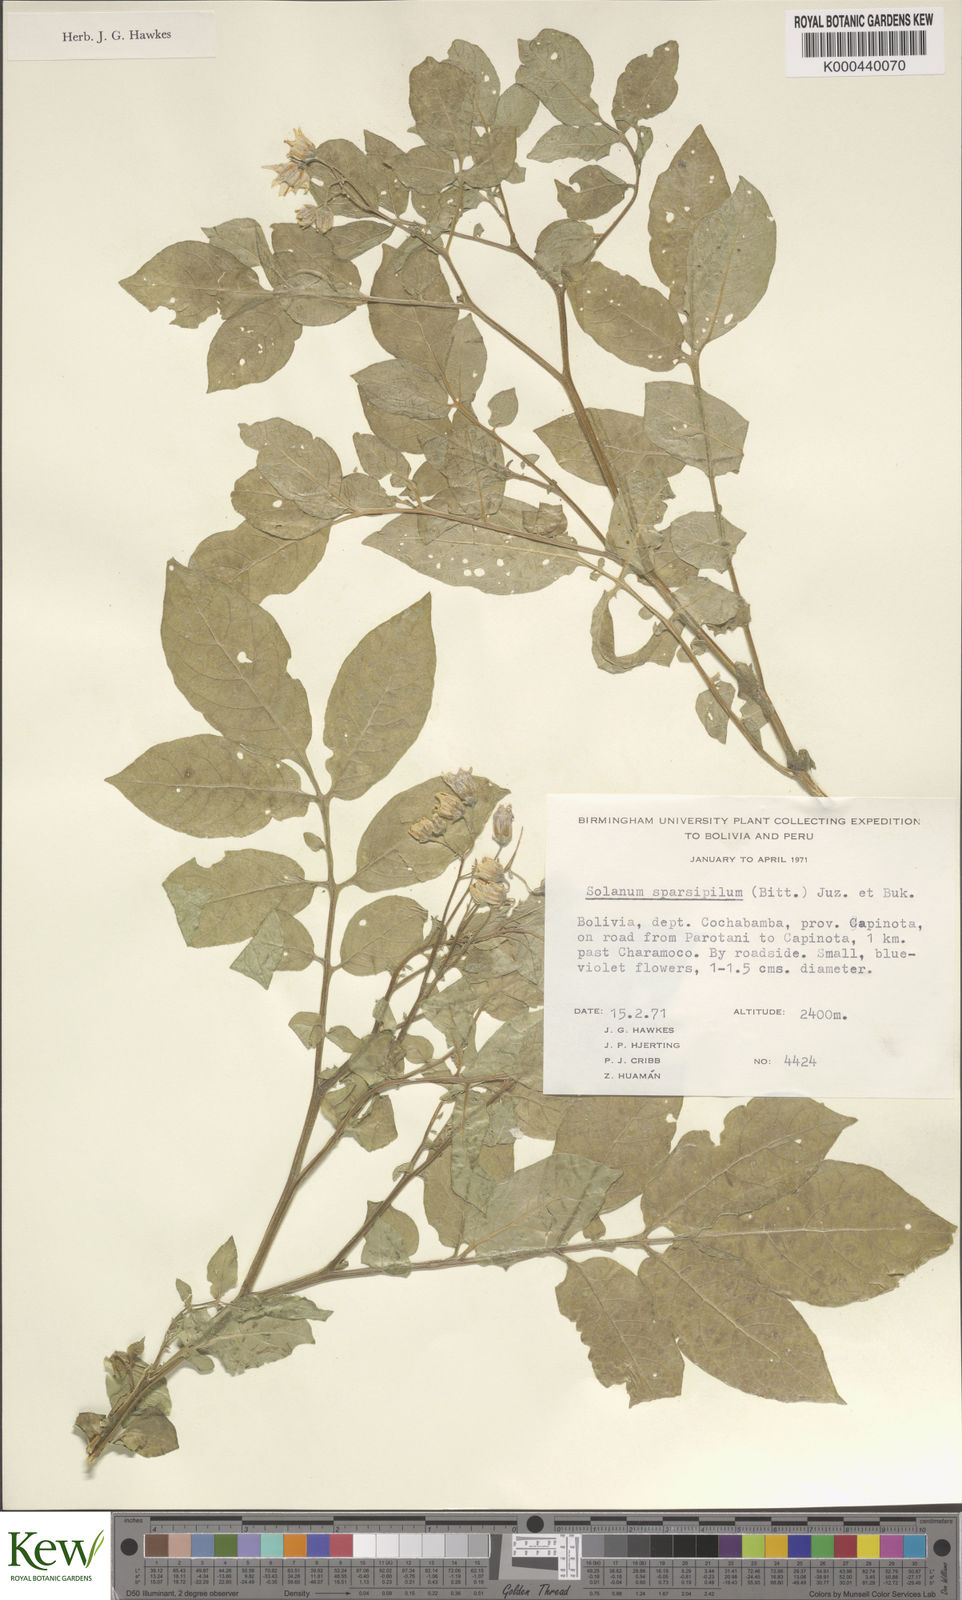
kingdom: Plantae
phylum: Tracheophyta
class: Magnoliopsida
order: Solanales
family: Solanaceae
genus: Solanum
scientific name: Solanum brevicaule
